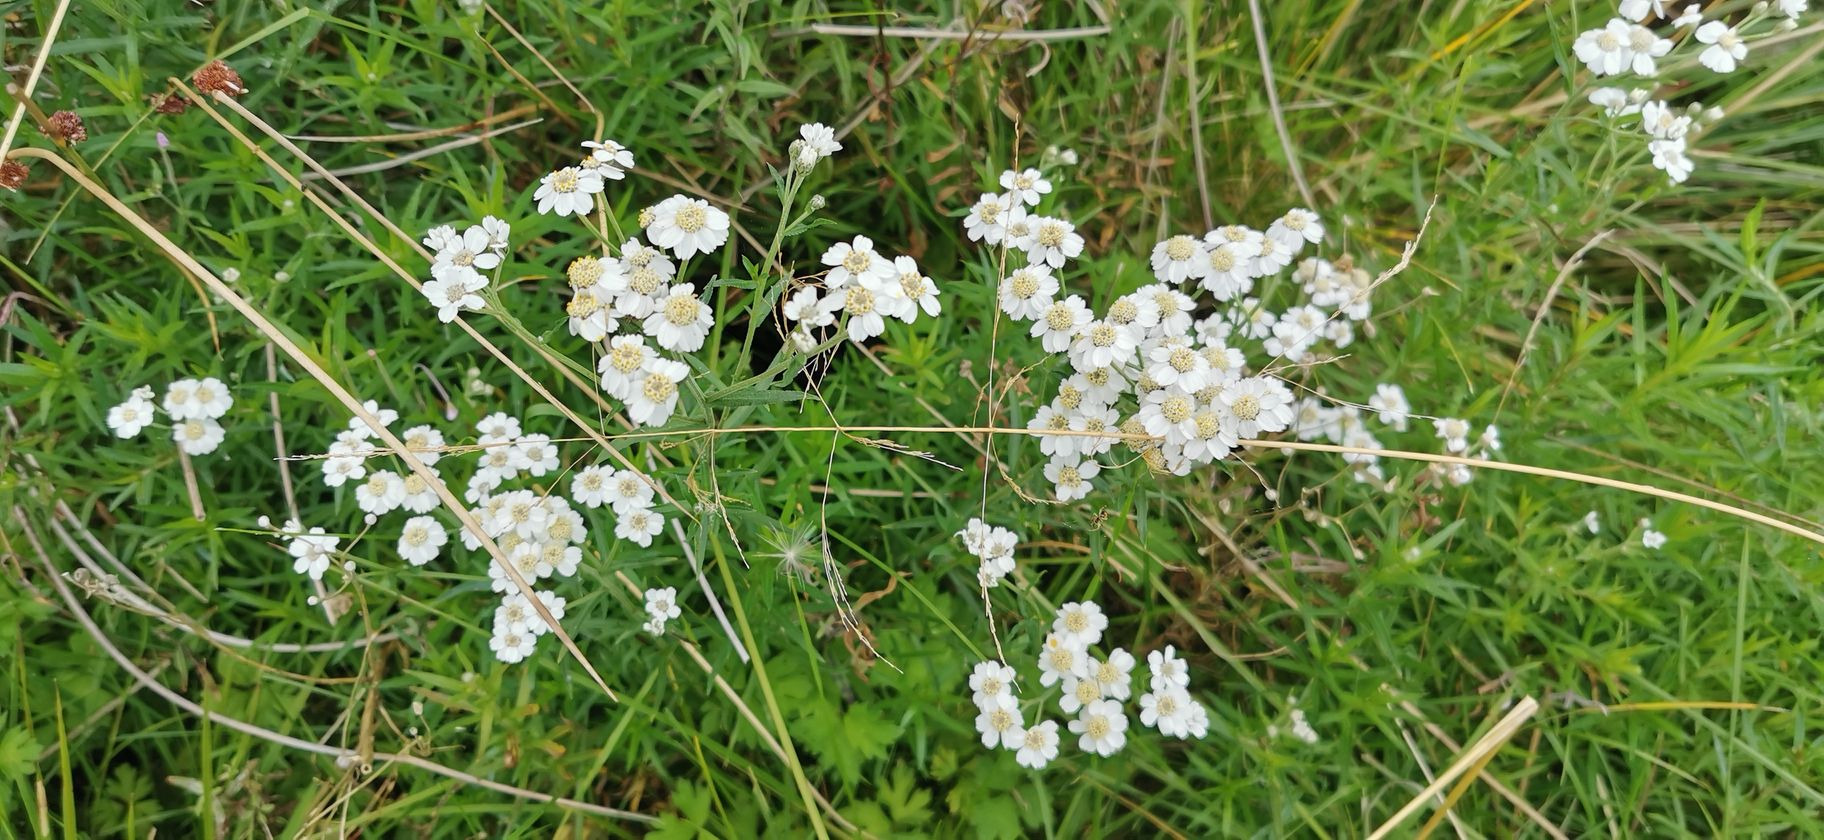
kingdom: Plantae
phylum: Tracheophyta
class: Magnoliopsida
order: Asterales
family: Asteraceae
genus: Achillea
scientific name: Achillea ptarmica
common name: Nyse-røllike
